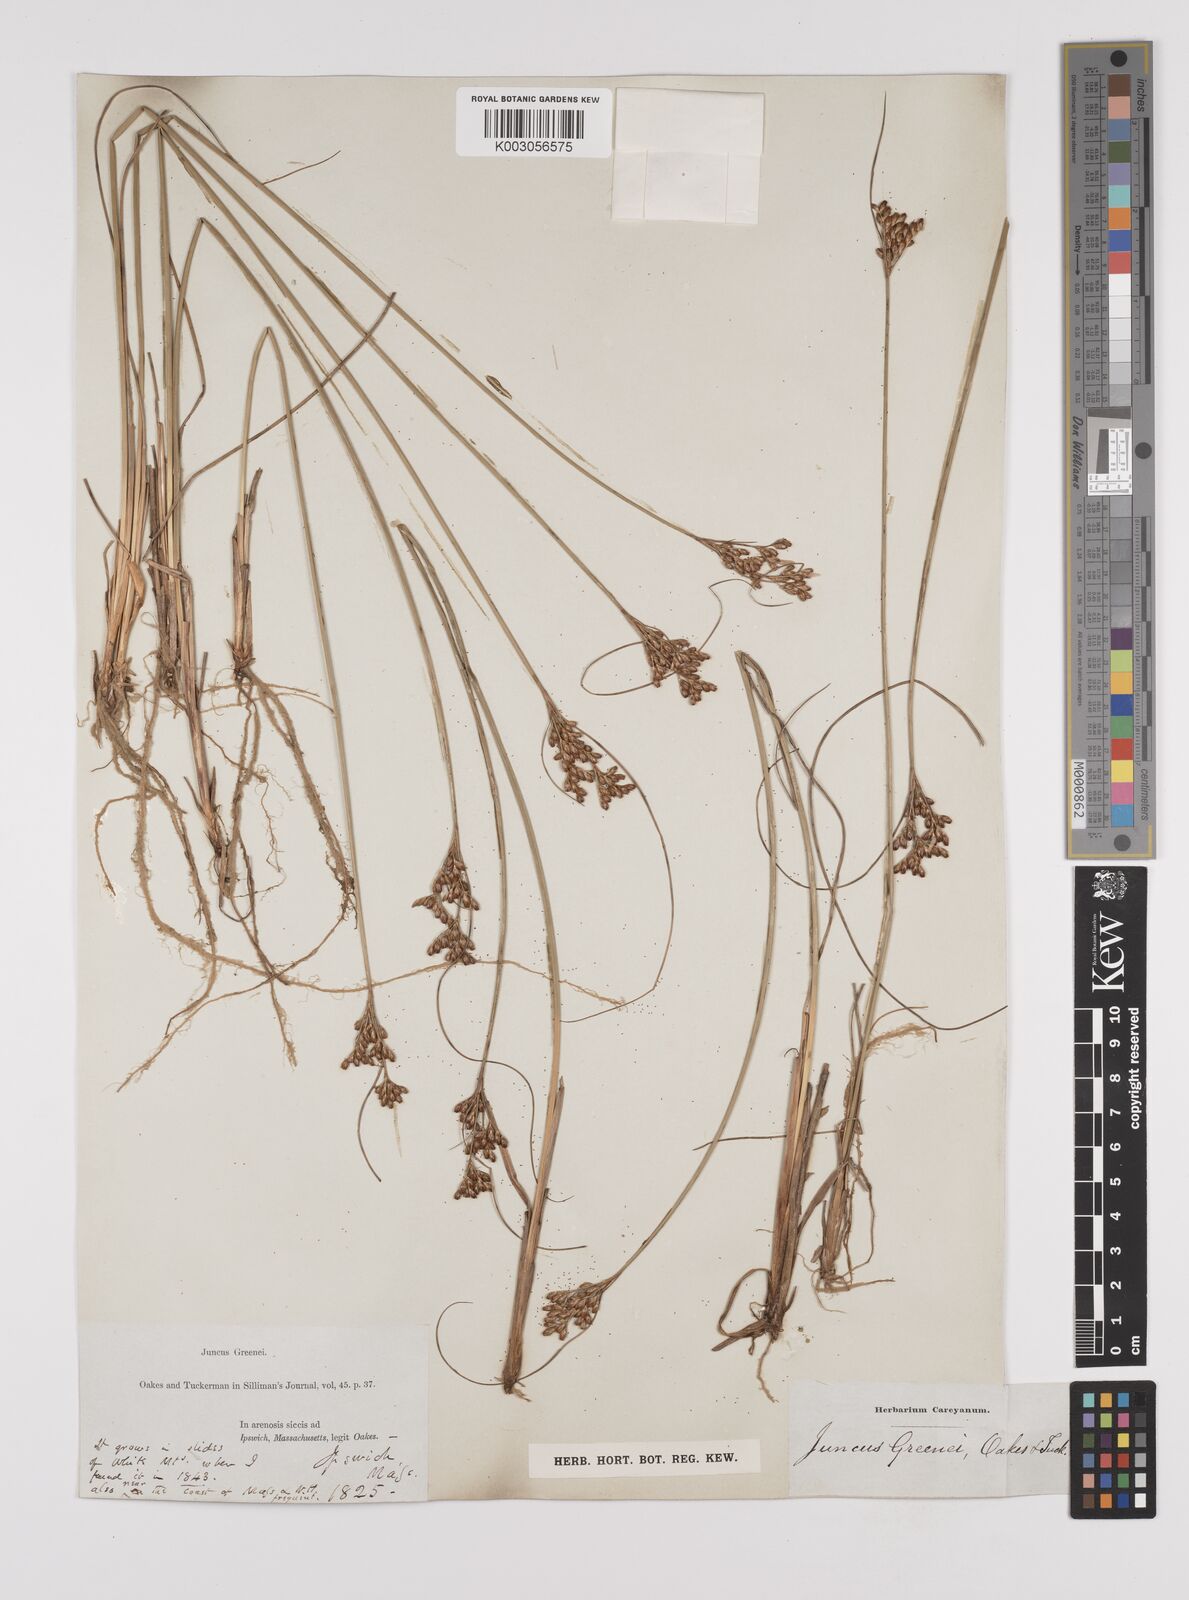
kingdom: Plantae
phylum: Tracheophyta
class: Liliopsida
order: Poales
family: Juncaceae
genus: Juncus
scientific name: Juncus greenei
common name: Greene's rush
